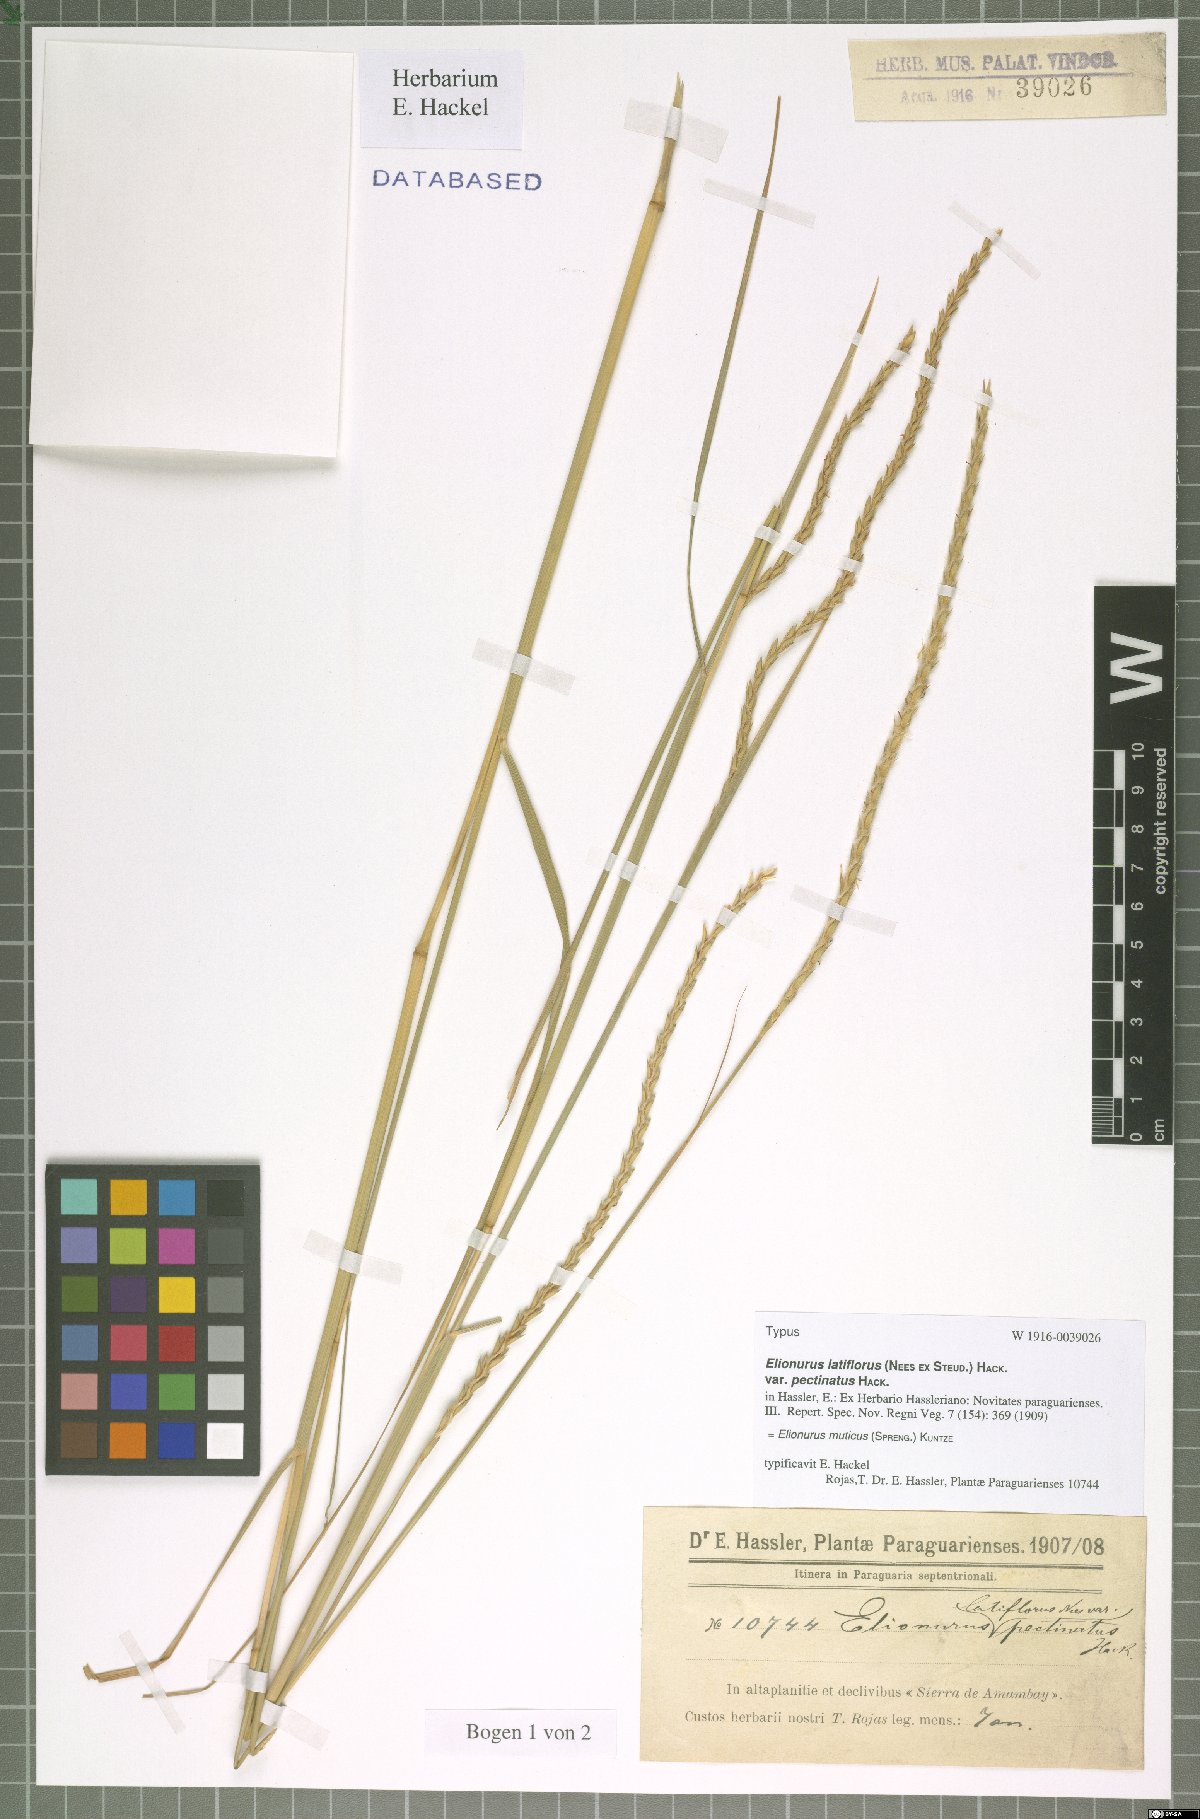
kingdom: Plantae
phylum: Tracheophyta
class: Liliopsida
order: Poales
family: Poaceae
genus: Elionurus
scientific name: Elionurus muticus
